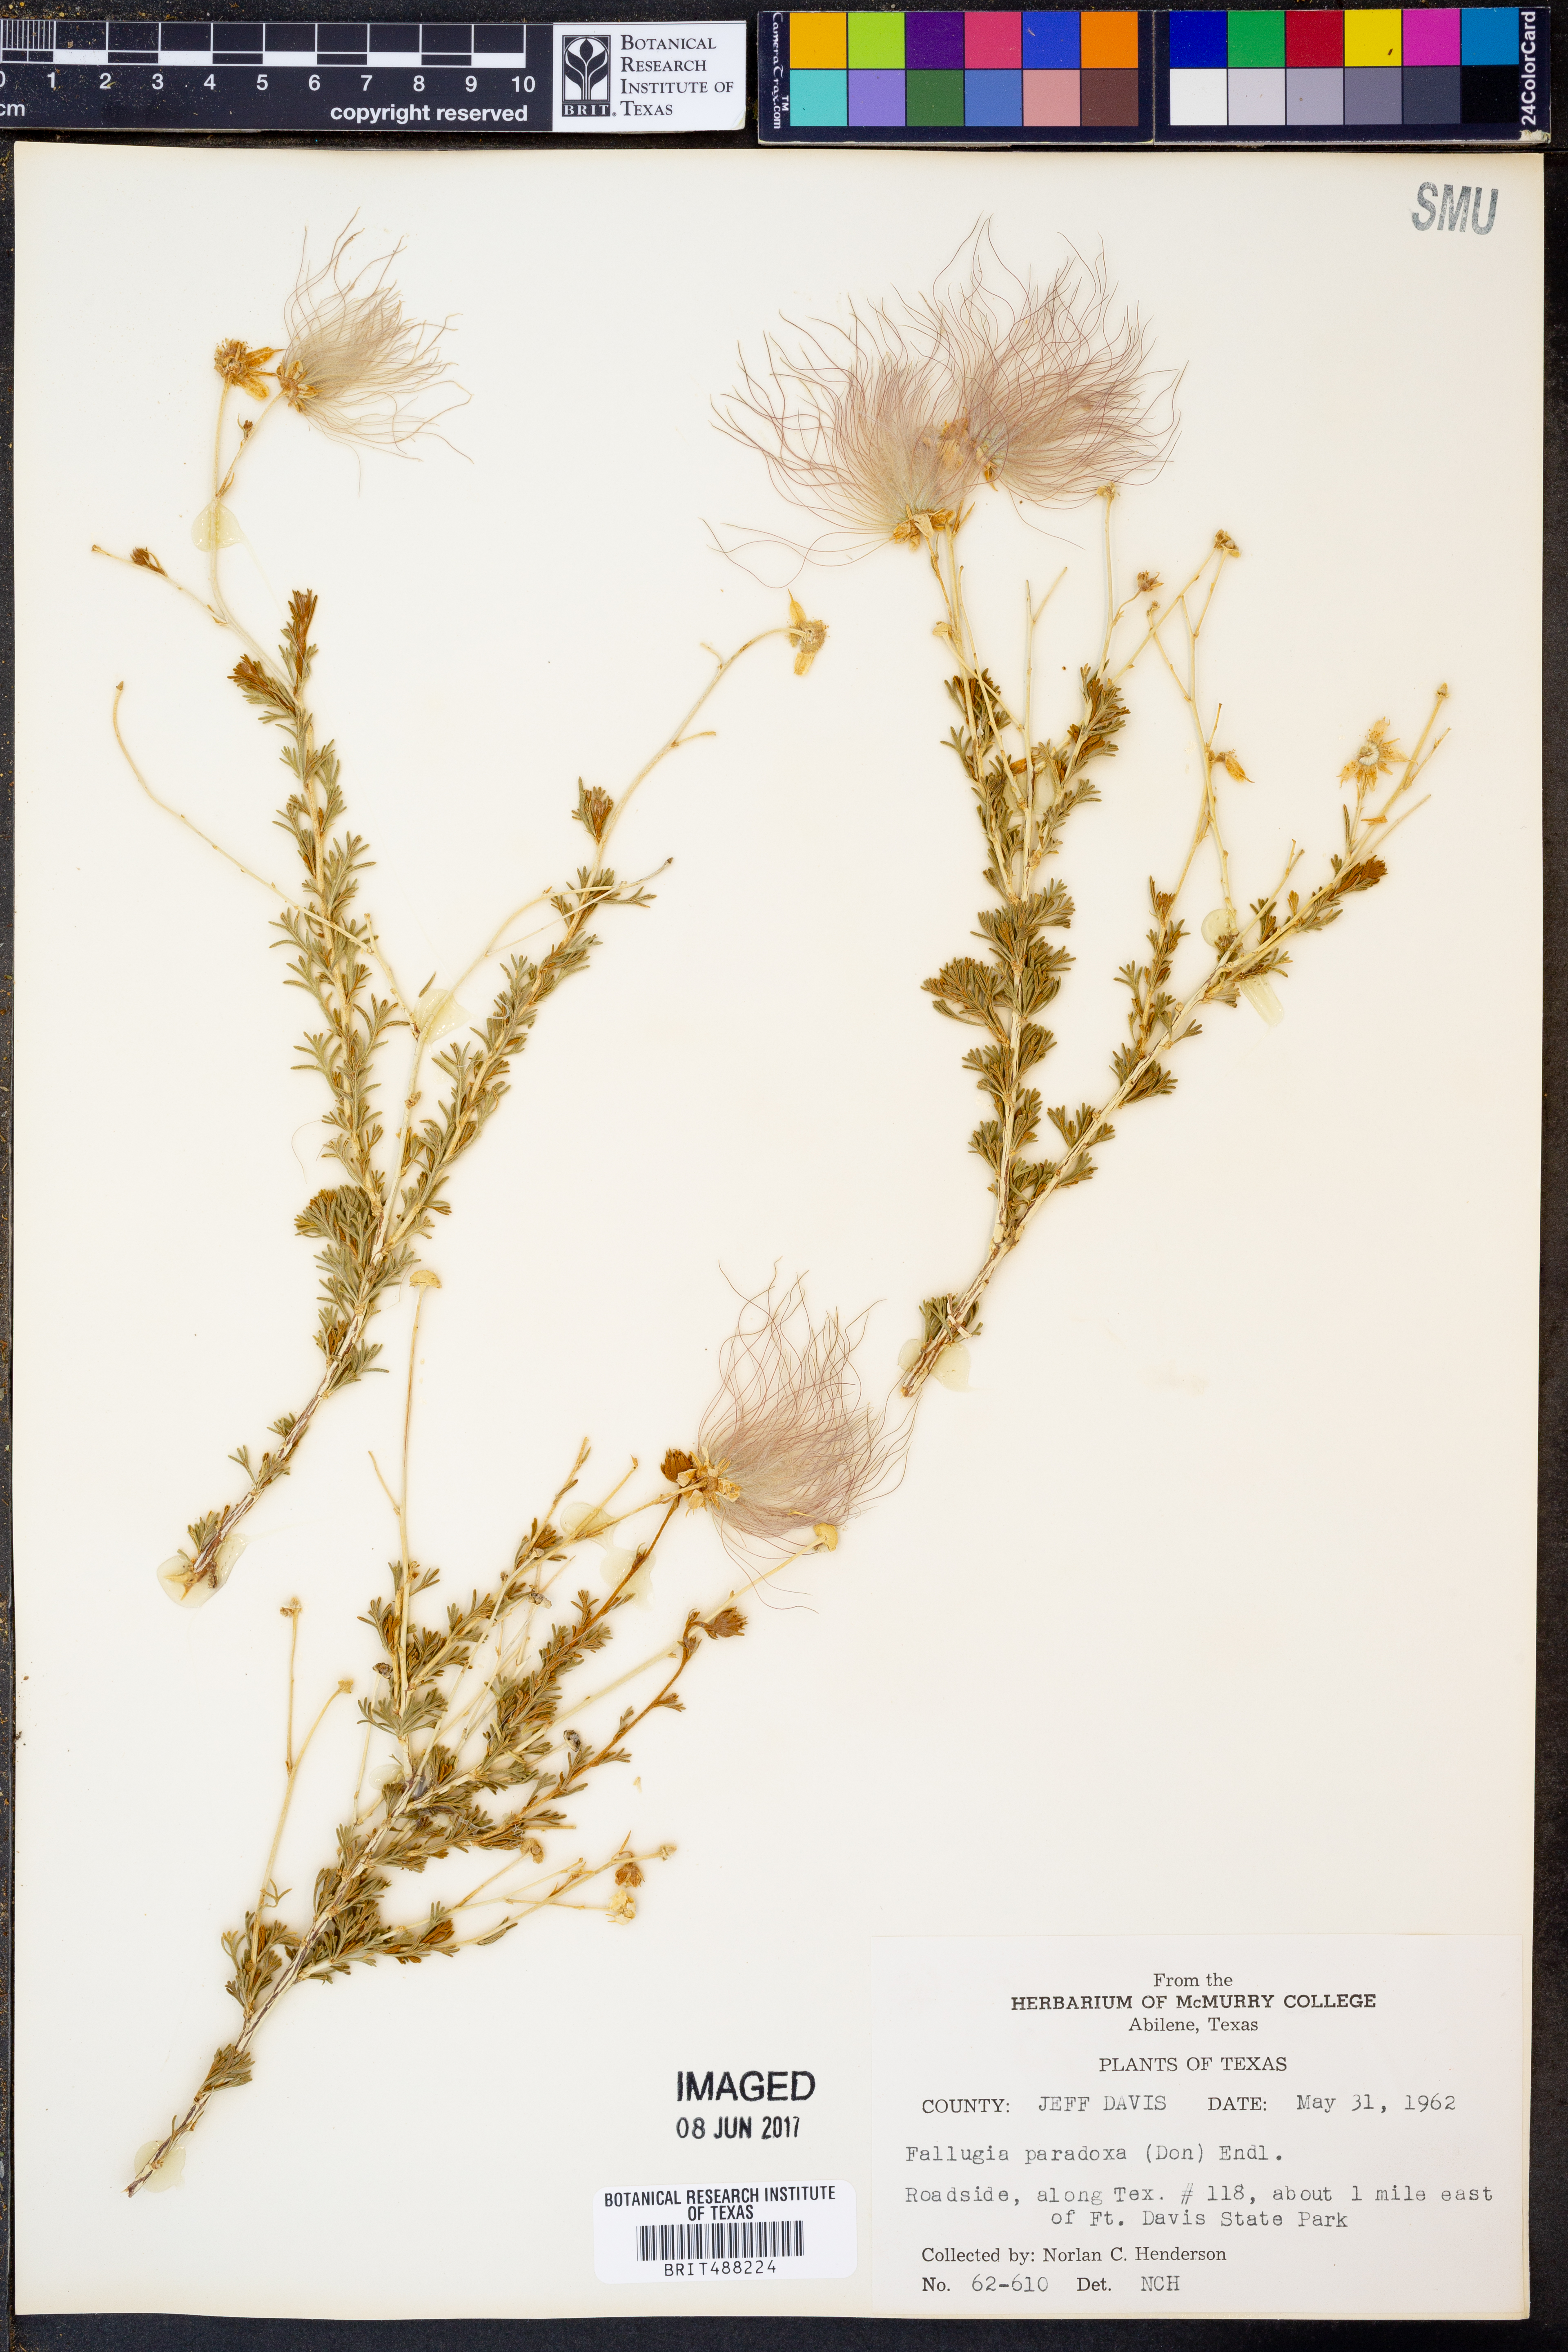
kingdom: Plantae
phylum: Tracheophyta
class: Magnoliopsida
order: Rosales
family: Rosaceae
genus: Fallugia
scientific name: Fallugia paradoxa
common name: Apache-plume
